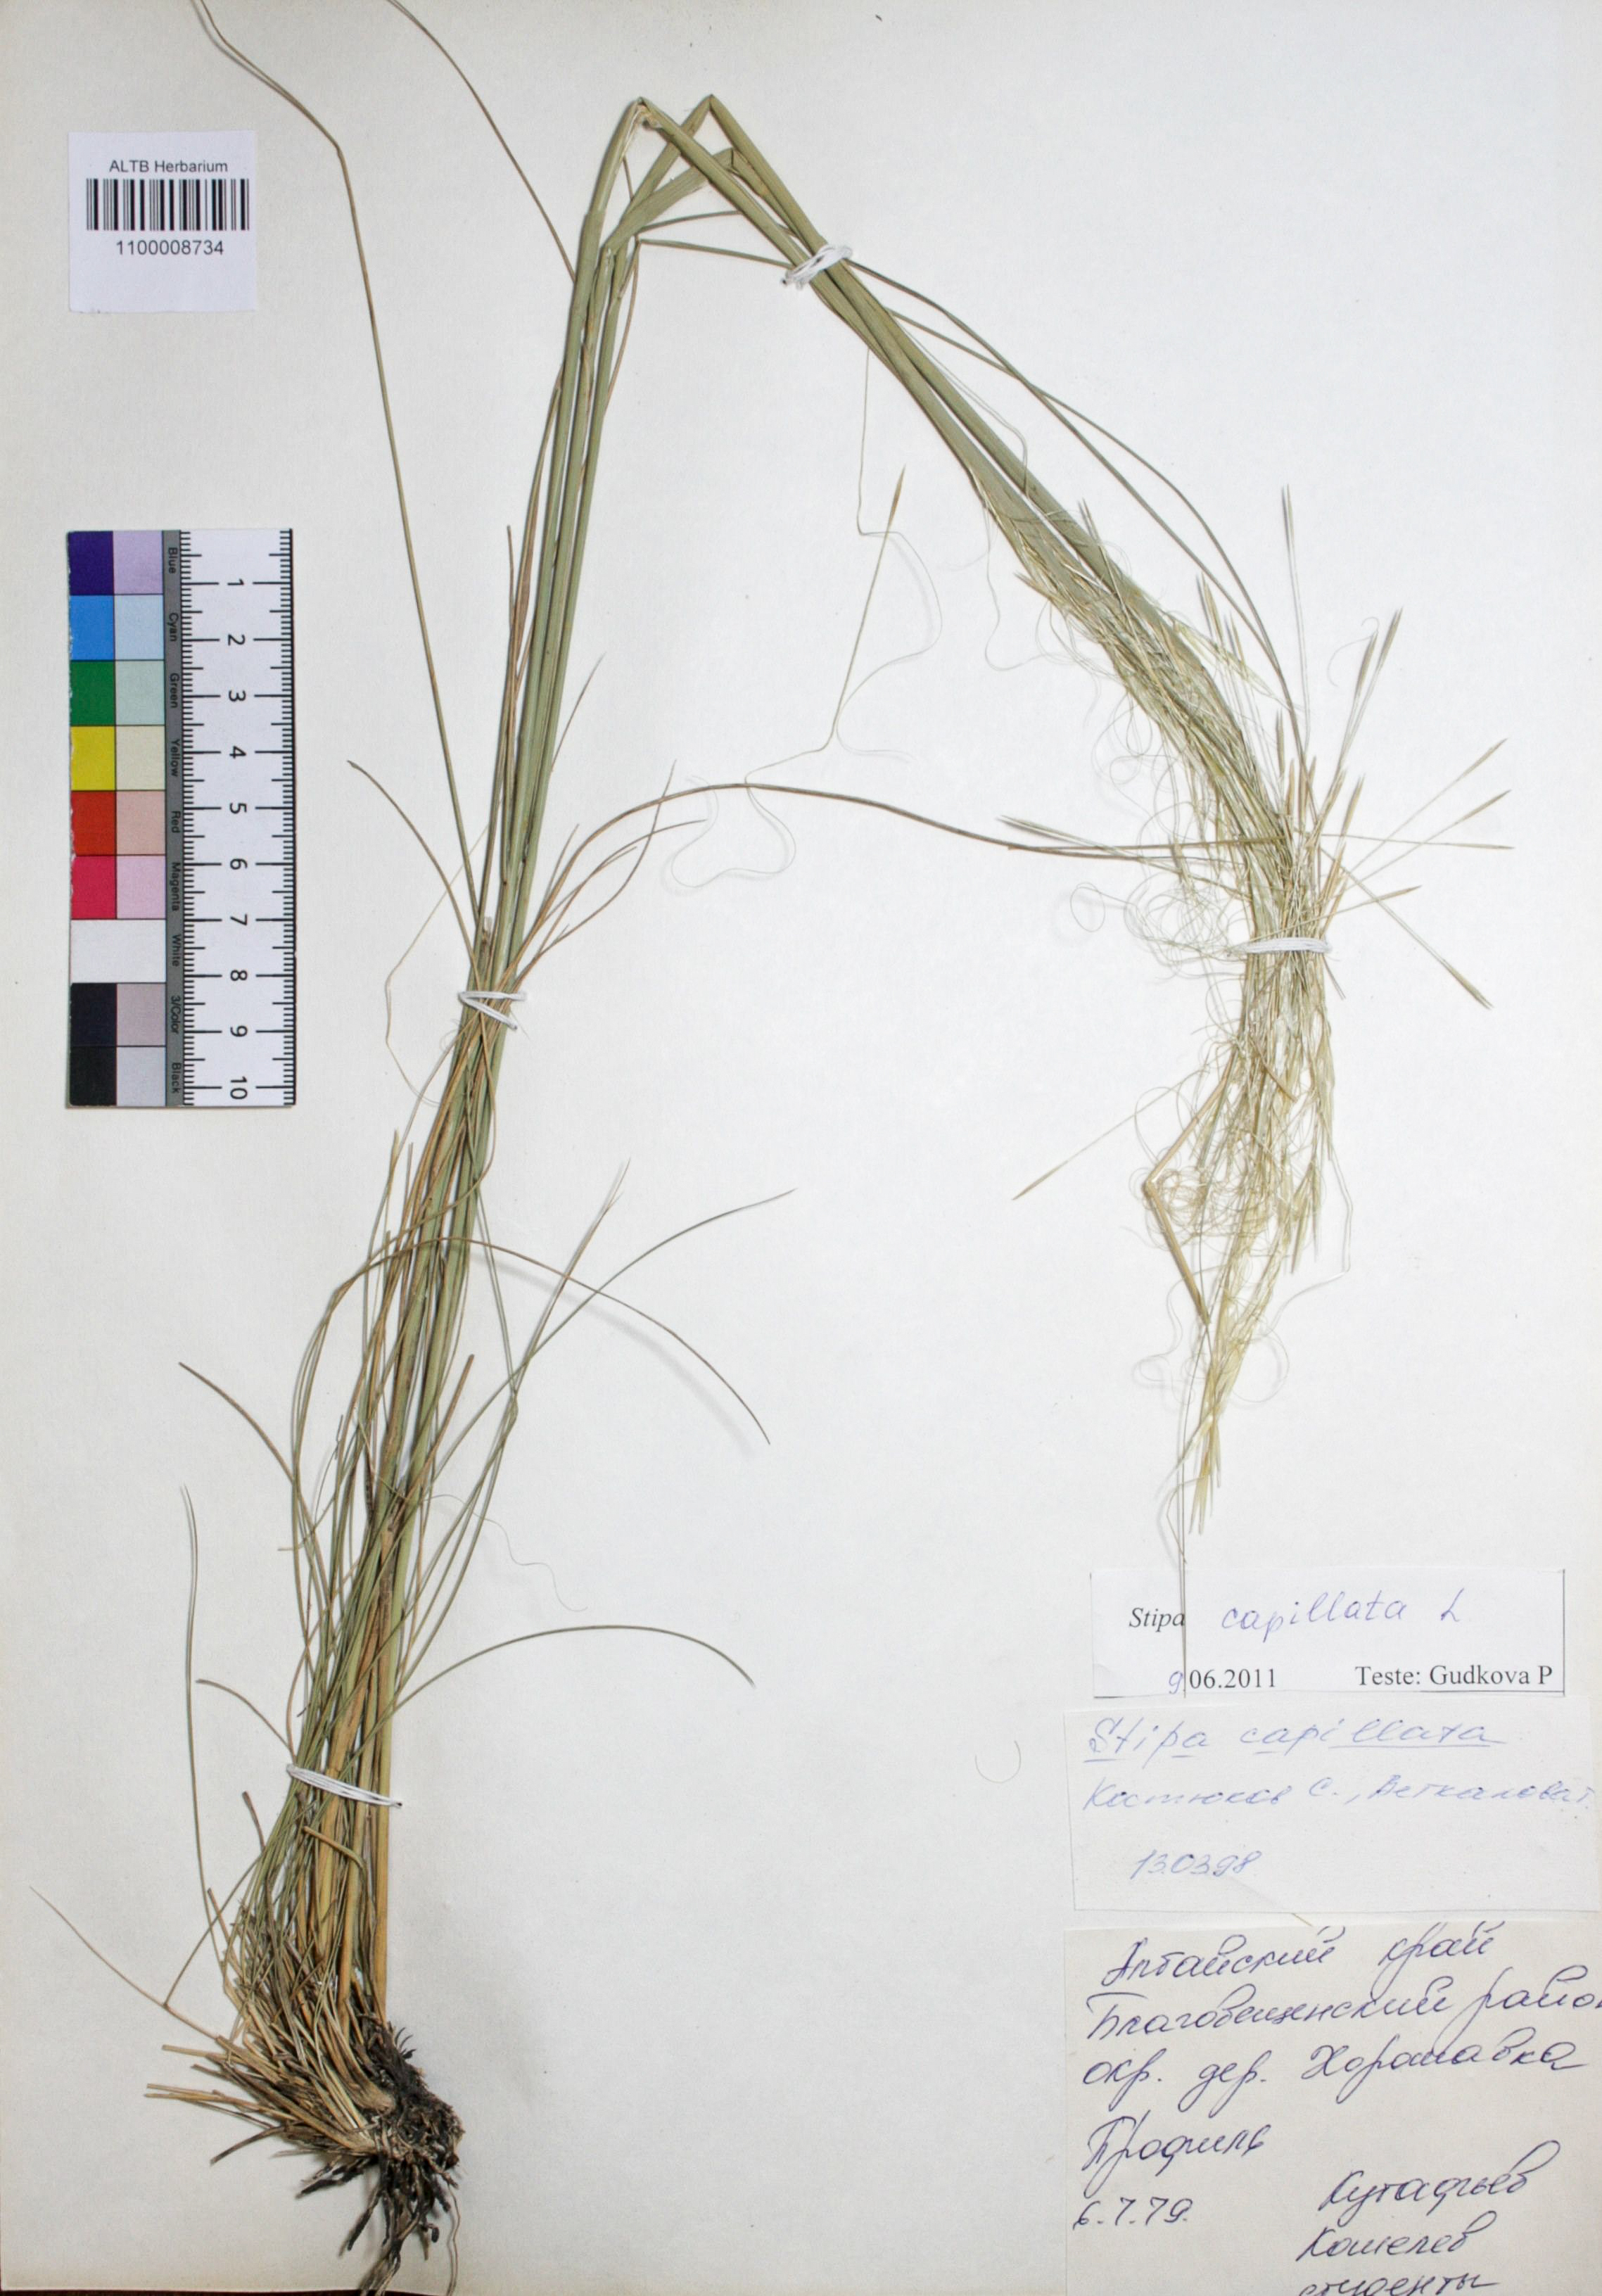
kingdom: Plantae
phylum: Tracheophyta
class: Liliopsida
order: Poales
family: Poaceae
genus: Stipa
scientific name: Stipa capillata
